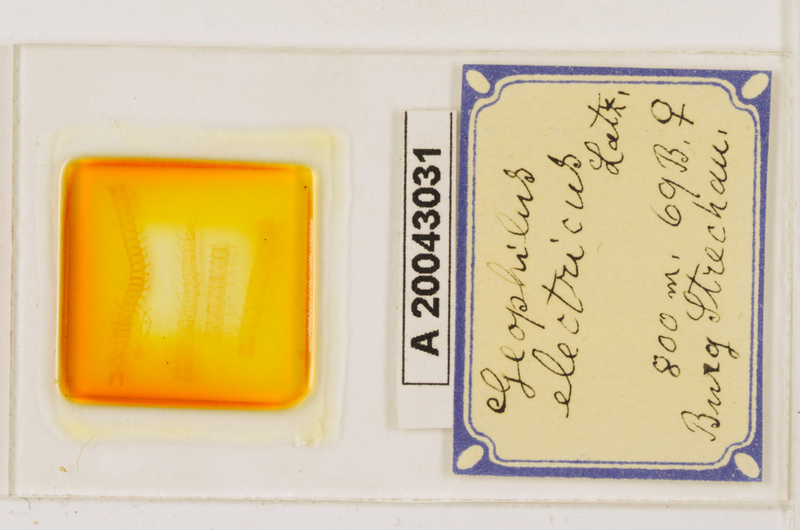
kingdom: Animalia
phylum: Arthropoda
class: Chilopoda
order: Geophilomorpha
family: Geophilidae
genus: Geophilus
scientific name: Geophilus electricus
